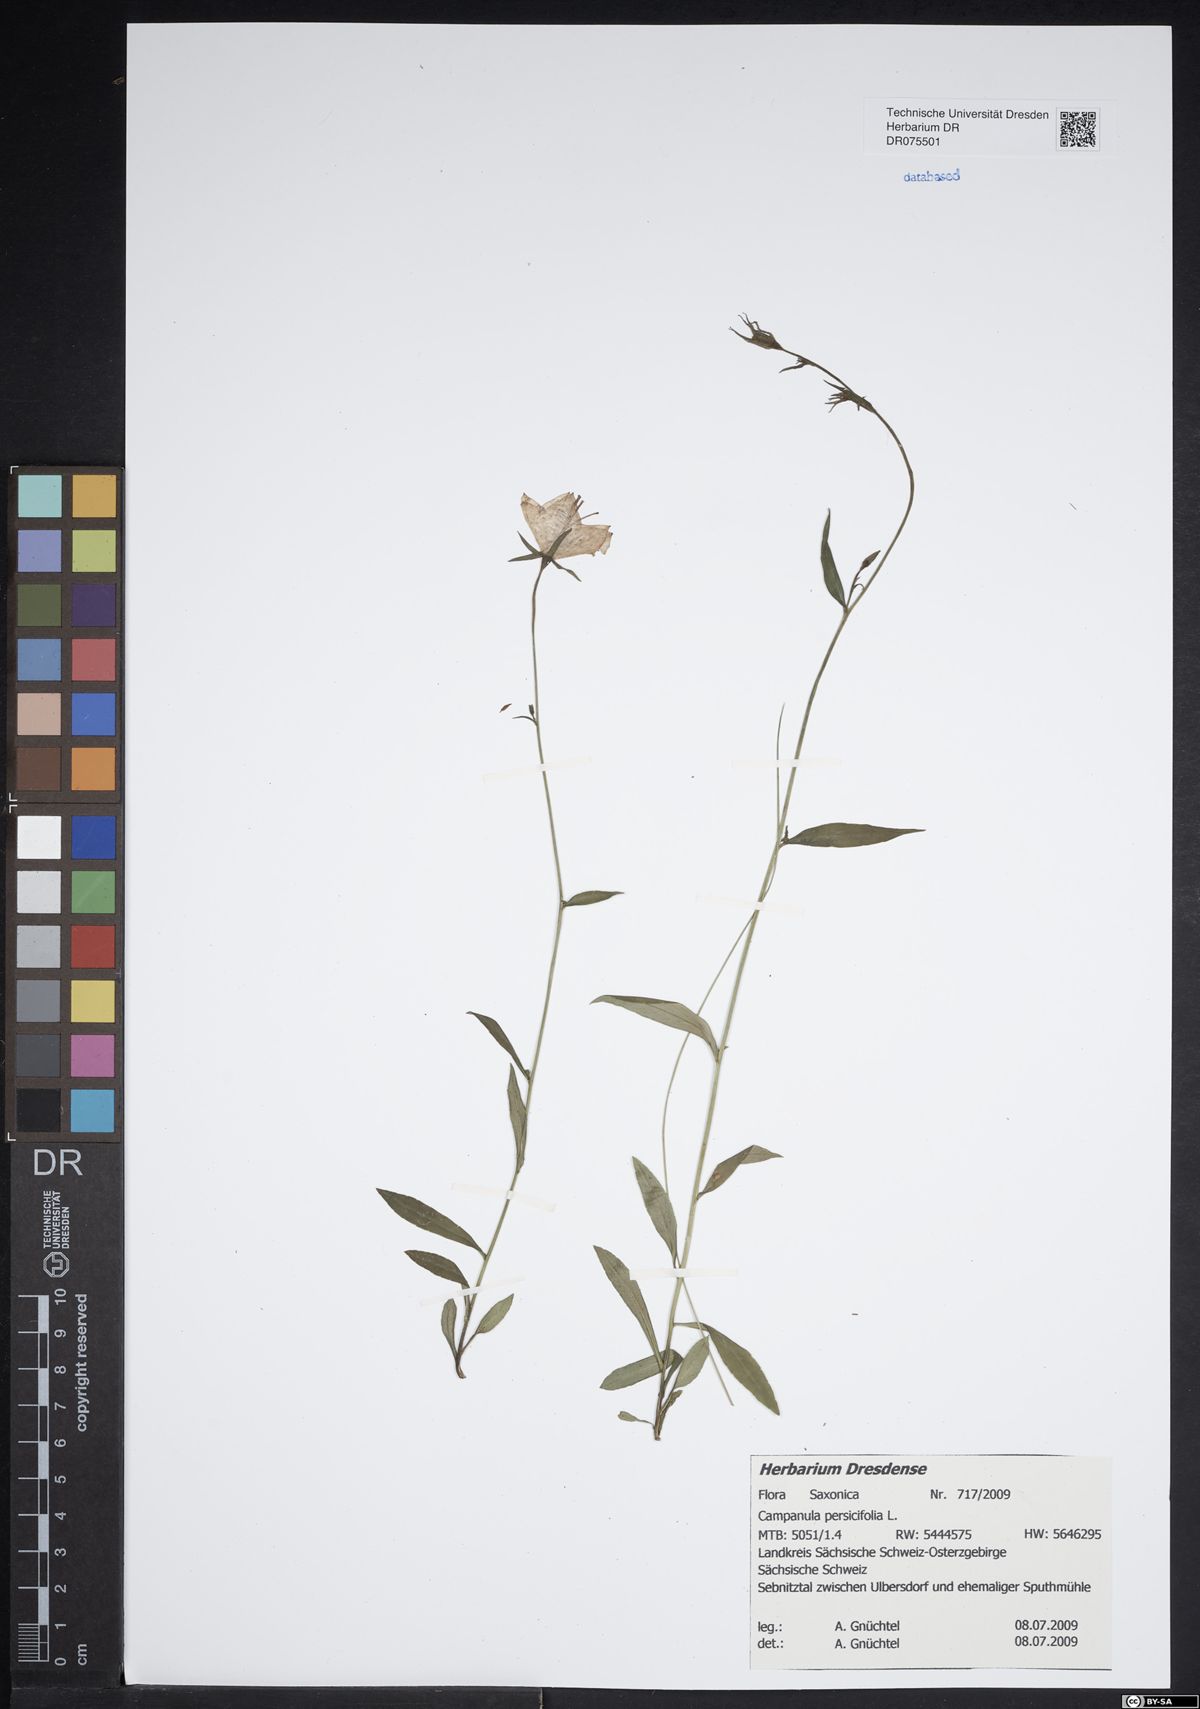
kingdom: Plantae
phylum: Tracheophyta
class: Magnoliopsida
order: Asterales
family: Campanulaceae
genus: Campanula
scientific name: Campanula persicifolia
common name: Peach-leaved bellflower
